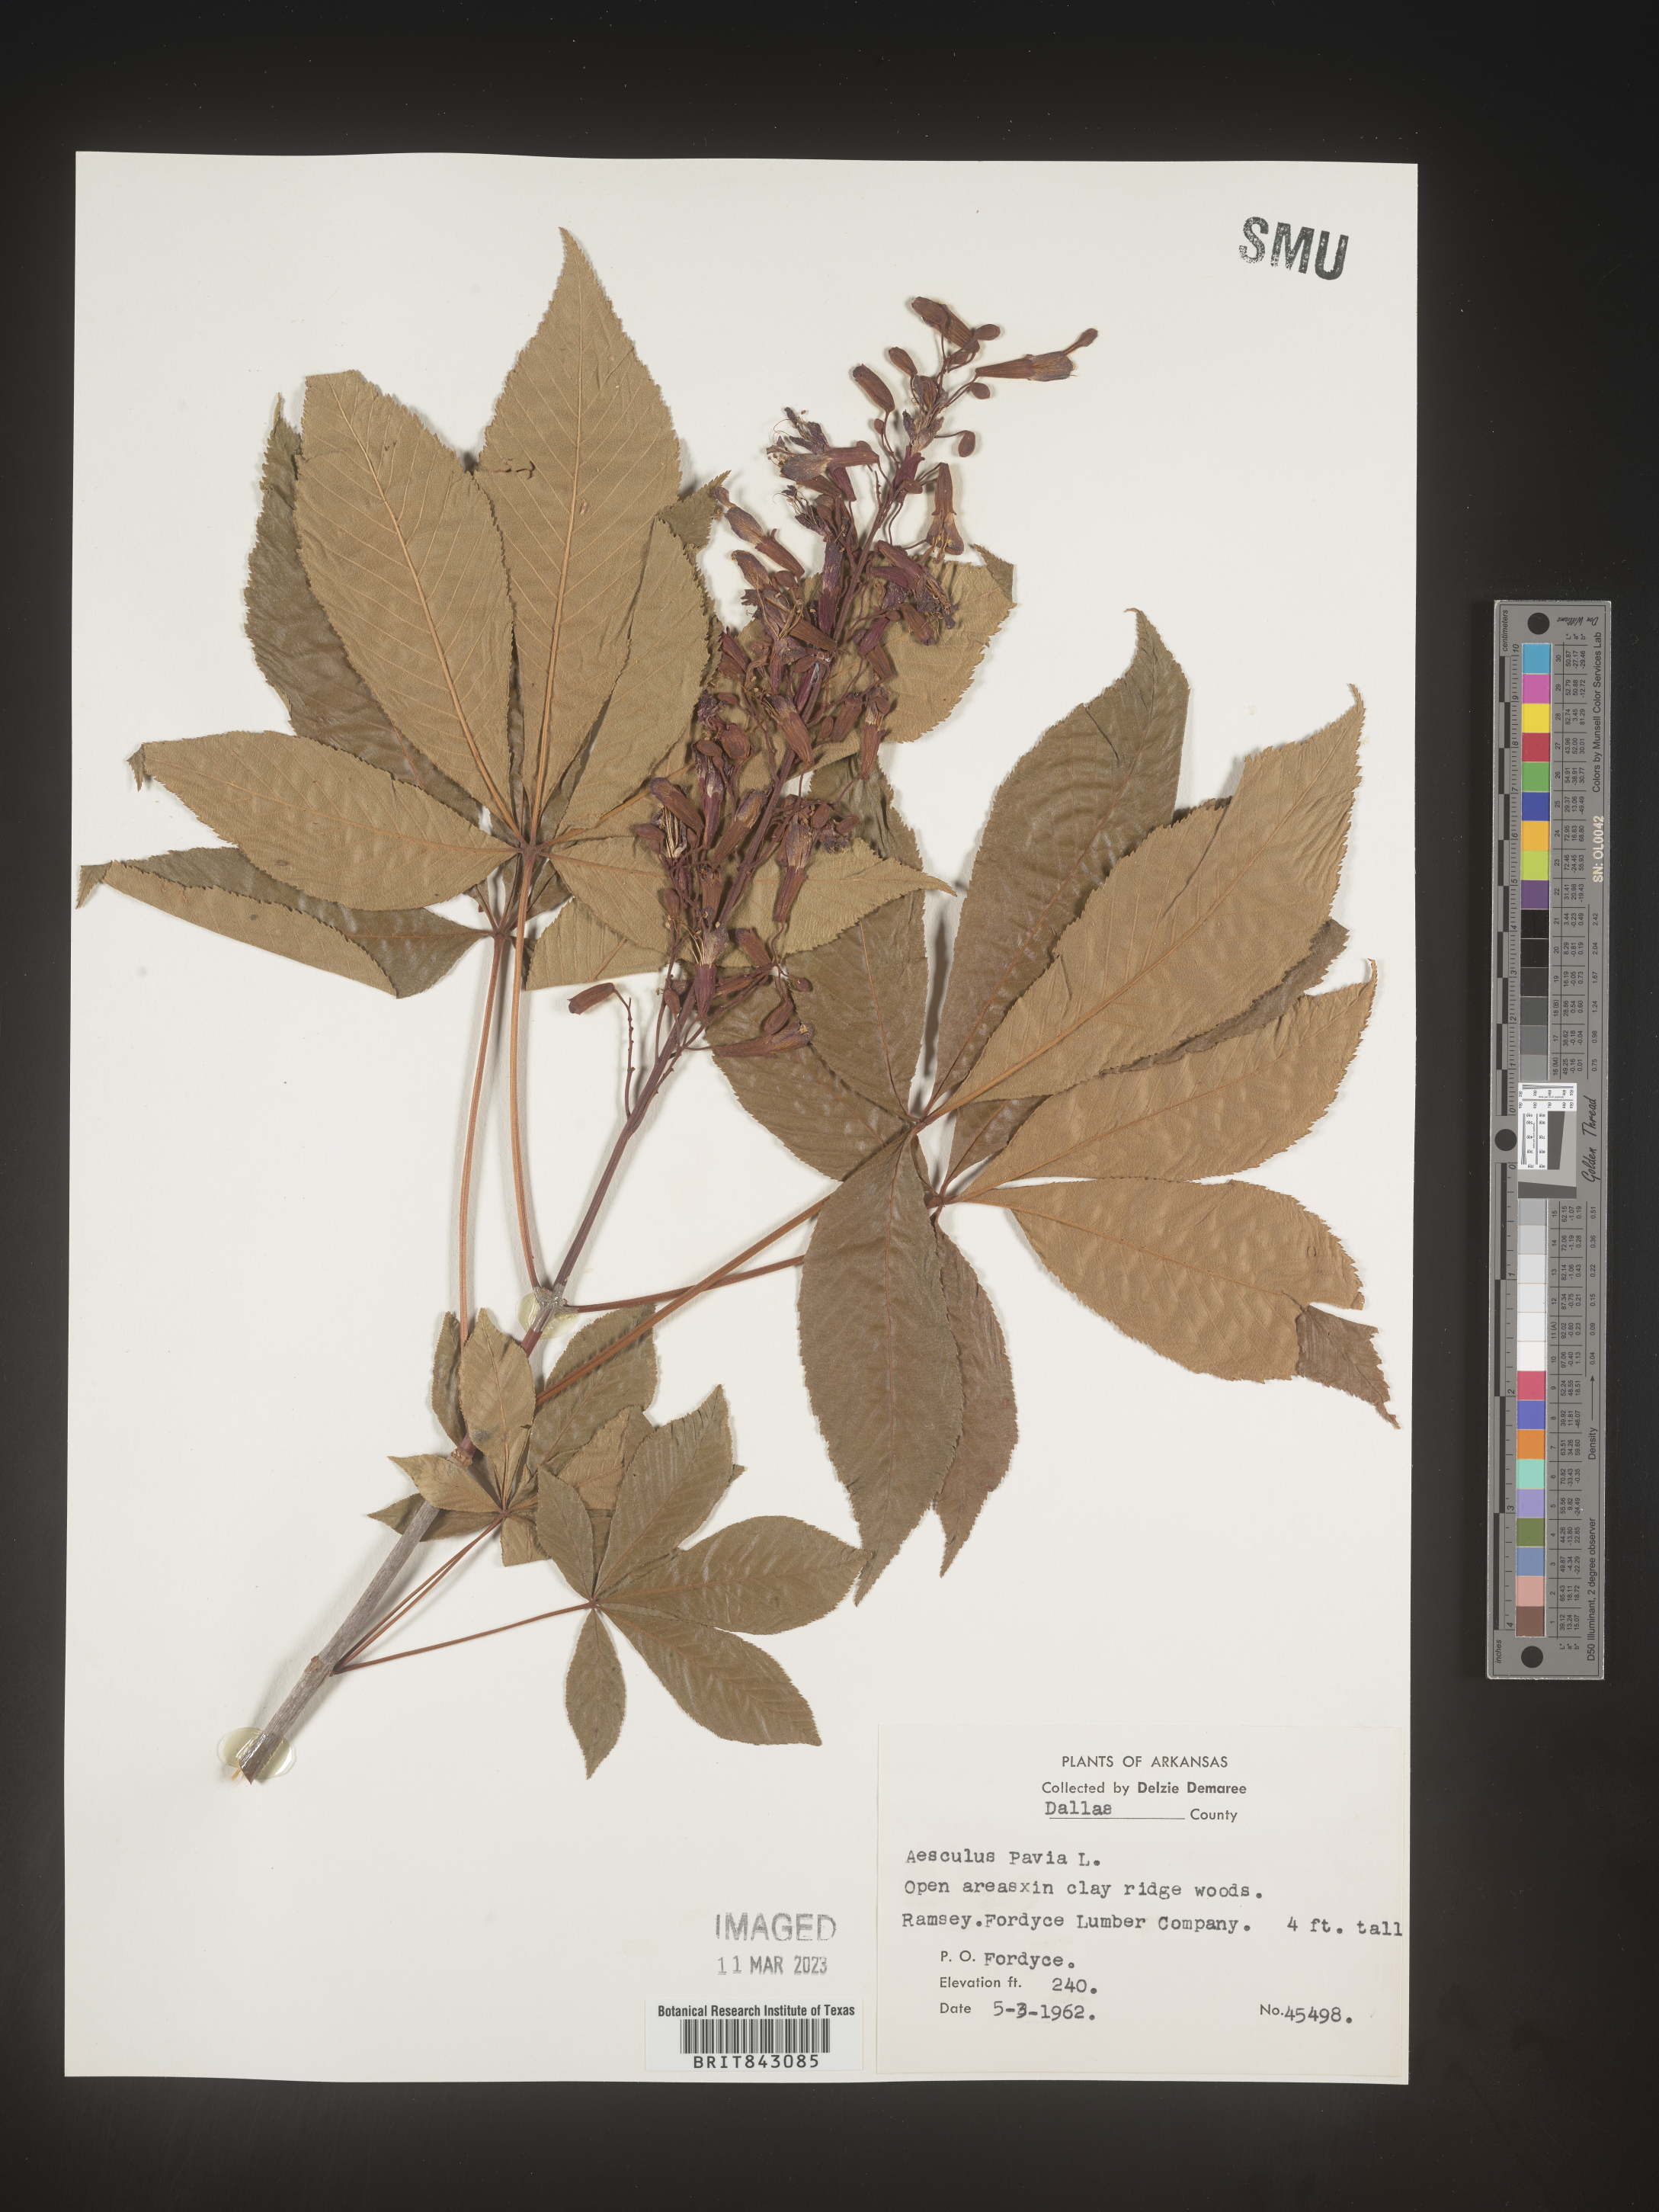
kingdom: Plantae
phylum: Tracheophyta
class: Magnoliopsida
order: Sapindales
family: Sapindaceae
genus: Aesculus
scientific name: Aesculus pavia
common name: Red buckeye
